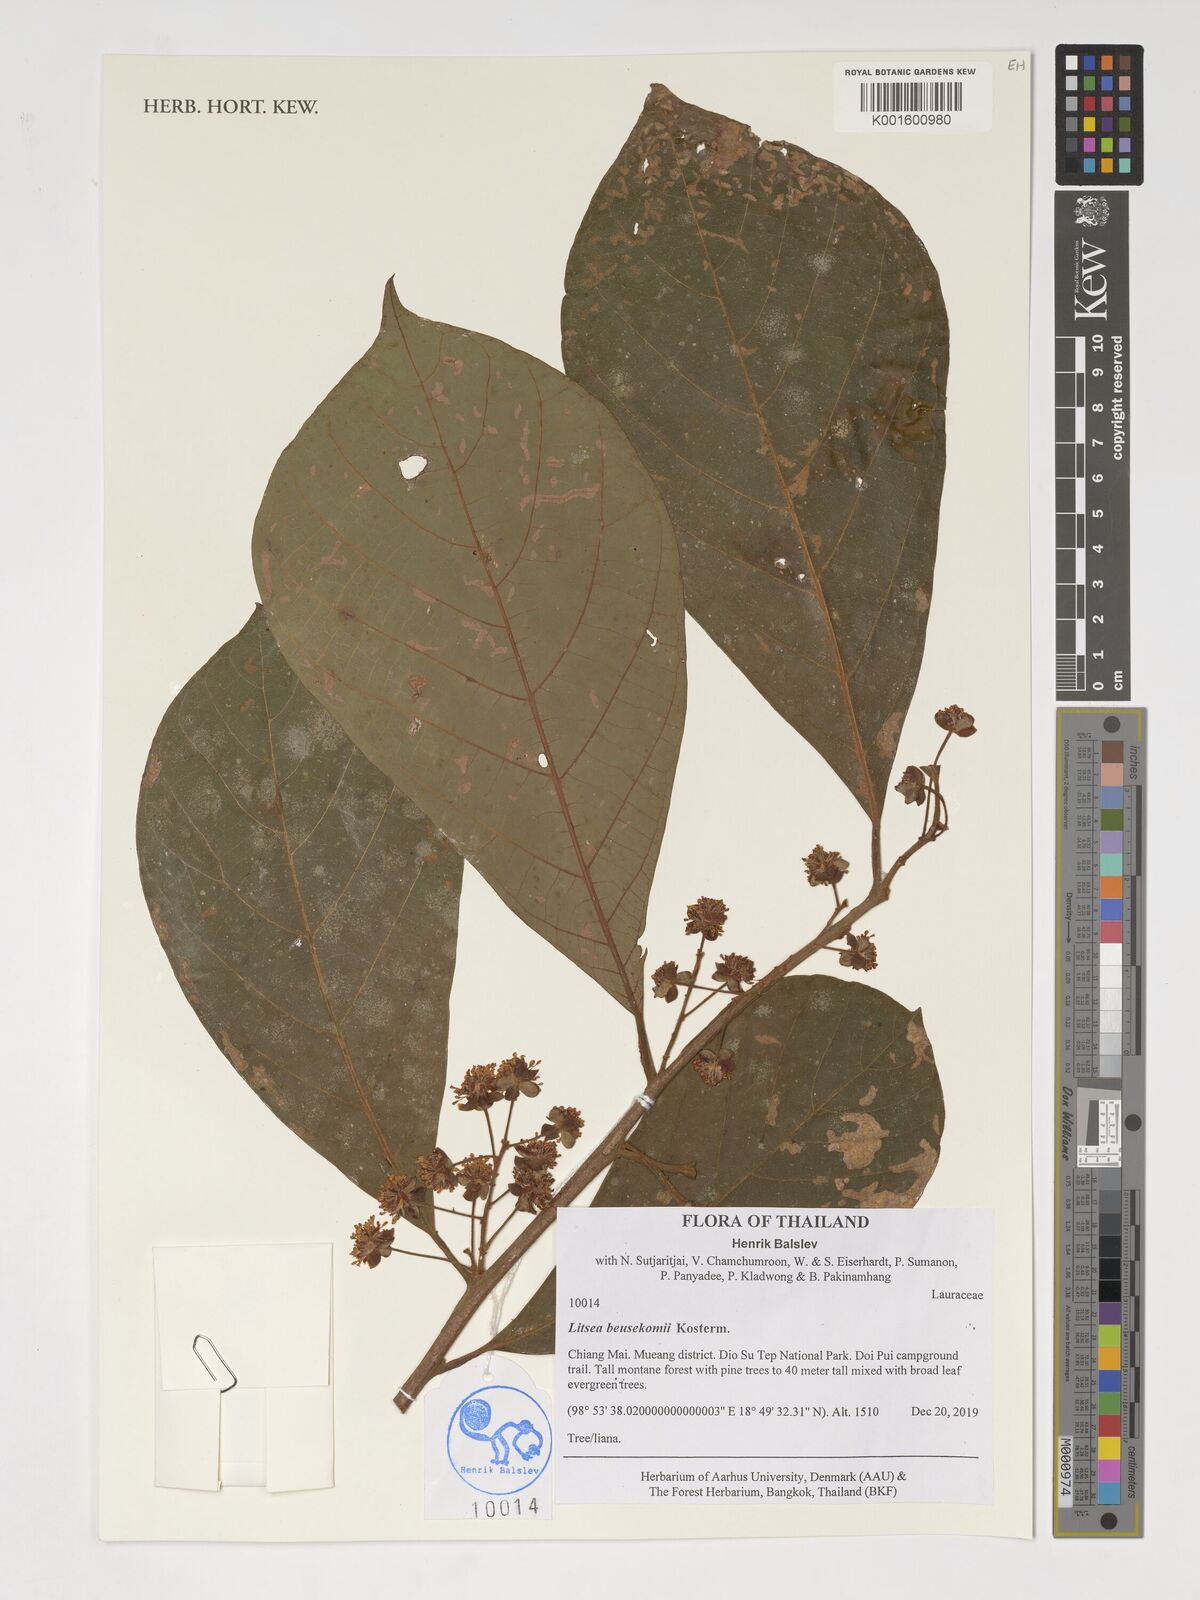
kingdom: Plantae
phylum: Tracheophyta
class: Magnoliopsida
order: Laurales
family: Lauraceae
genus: Litsea
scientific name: Litsea beusekomii
